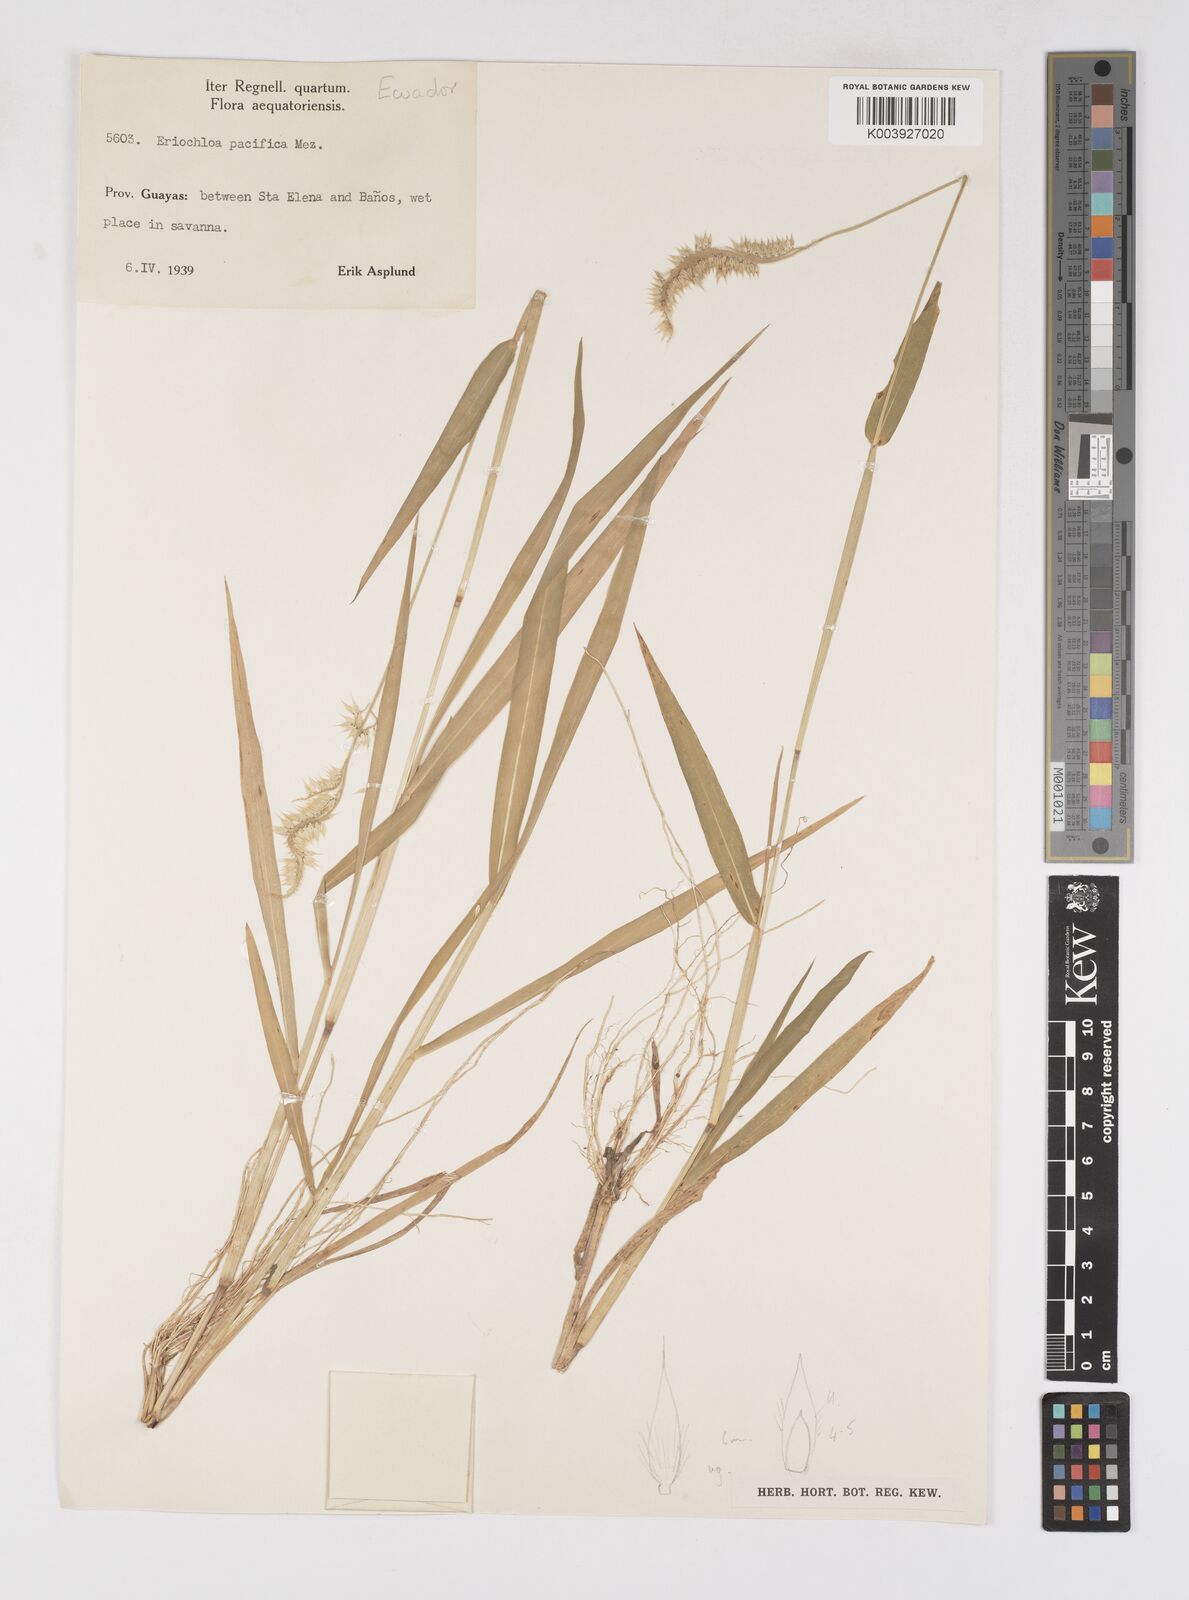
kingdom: Plantae
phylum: Tracheophyta
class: Liliopsida
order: Poales
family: Poaceae
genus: Eriochloa
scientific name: Eriochloa pacifica
